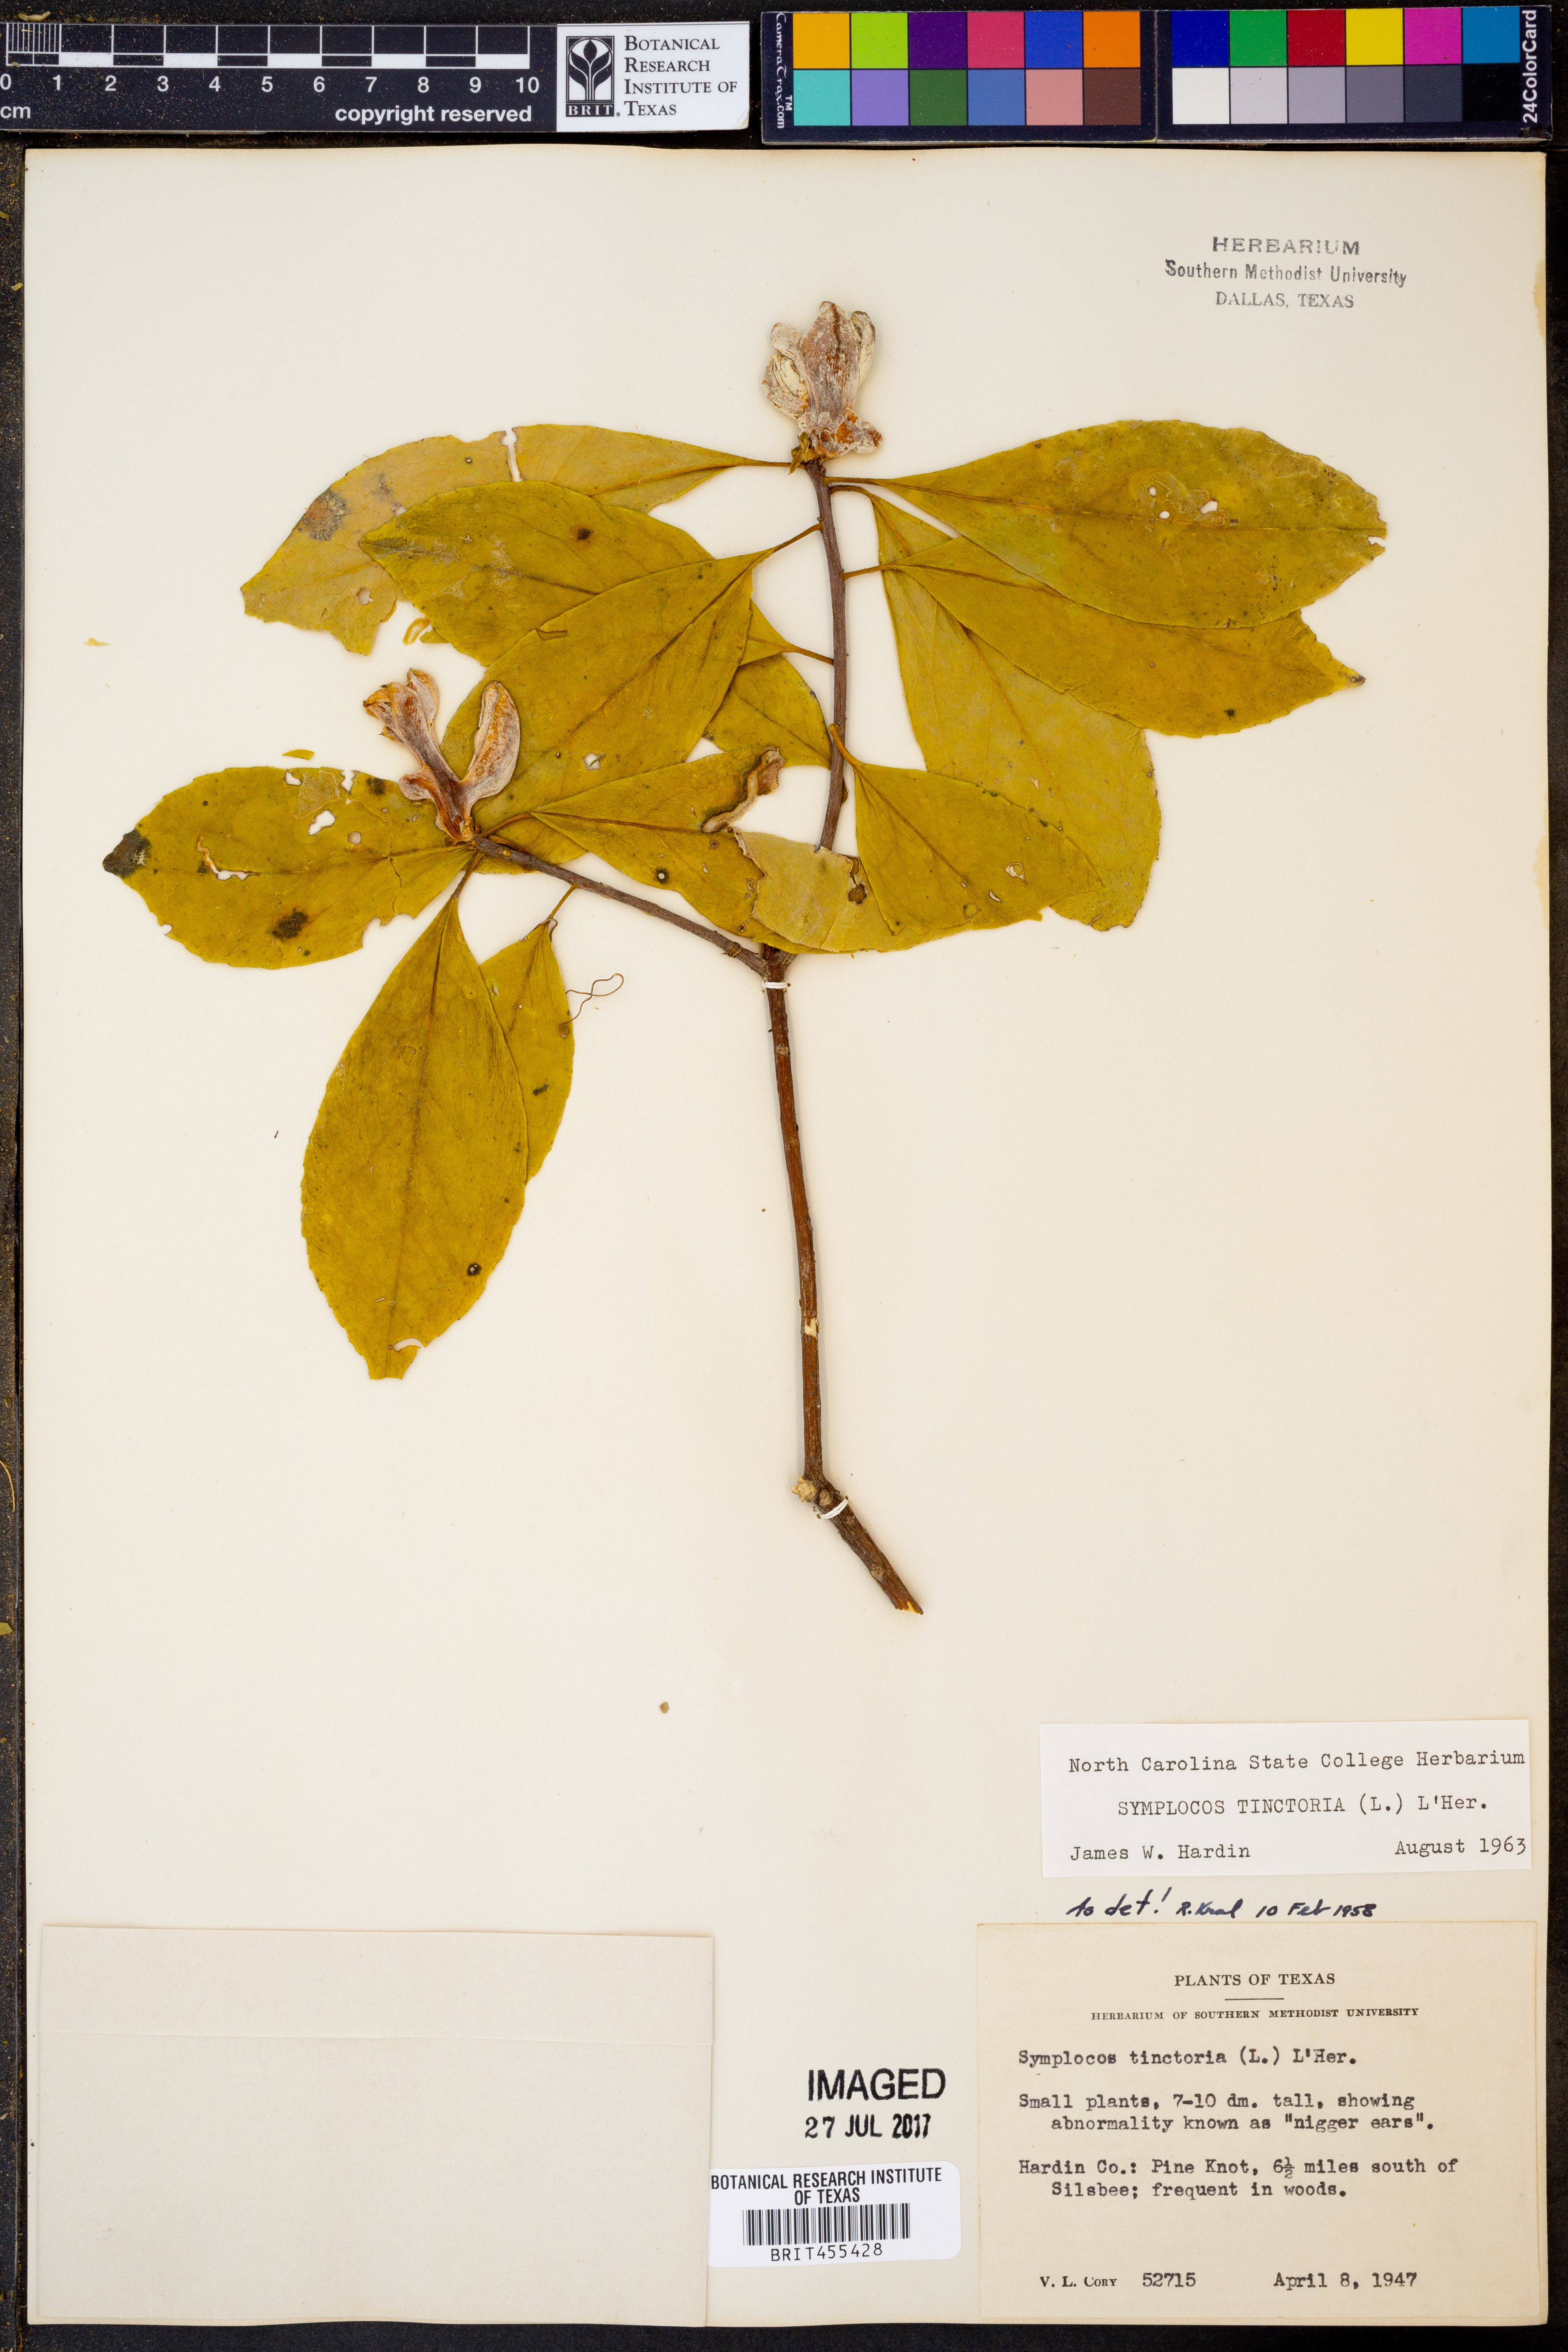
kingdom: Plantae
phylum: Tracheophyta
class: Magnoliopsida
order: Ericales
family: Symplocaceae
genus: Symplocos
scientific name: Symplocos tinctoria
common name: Horse-sugar
